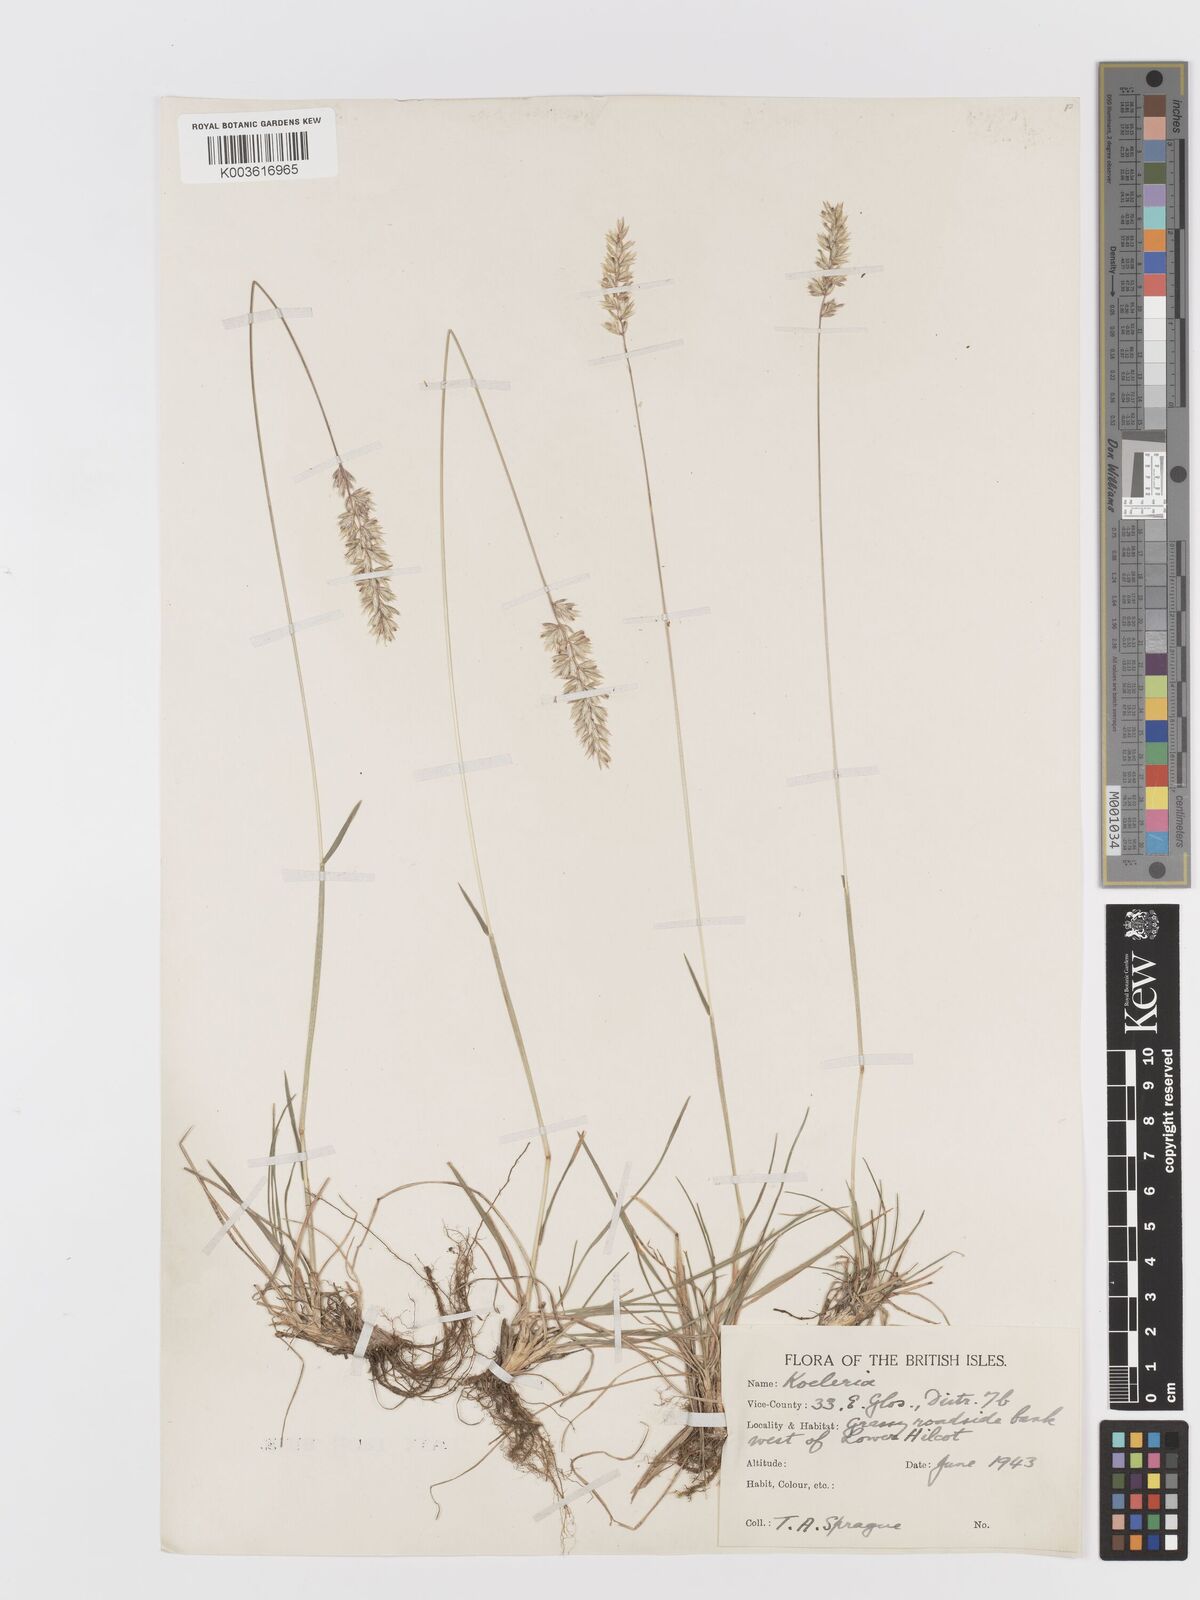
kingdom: Plantae
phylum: Tracheophyta
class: Liliopsida
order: Poales
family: Poaceae
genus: Koeleria
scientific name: Koeleria nitidula
